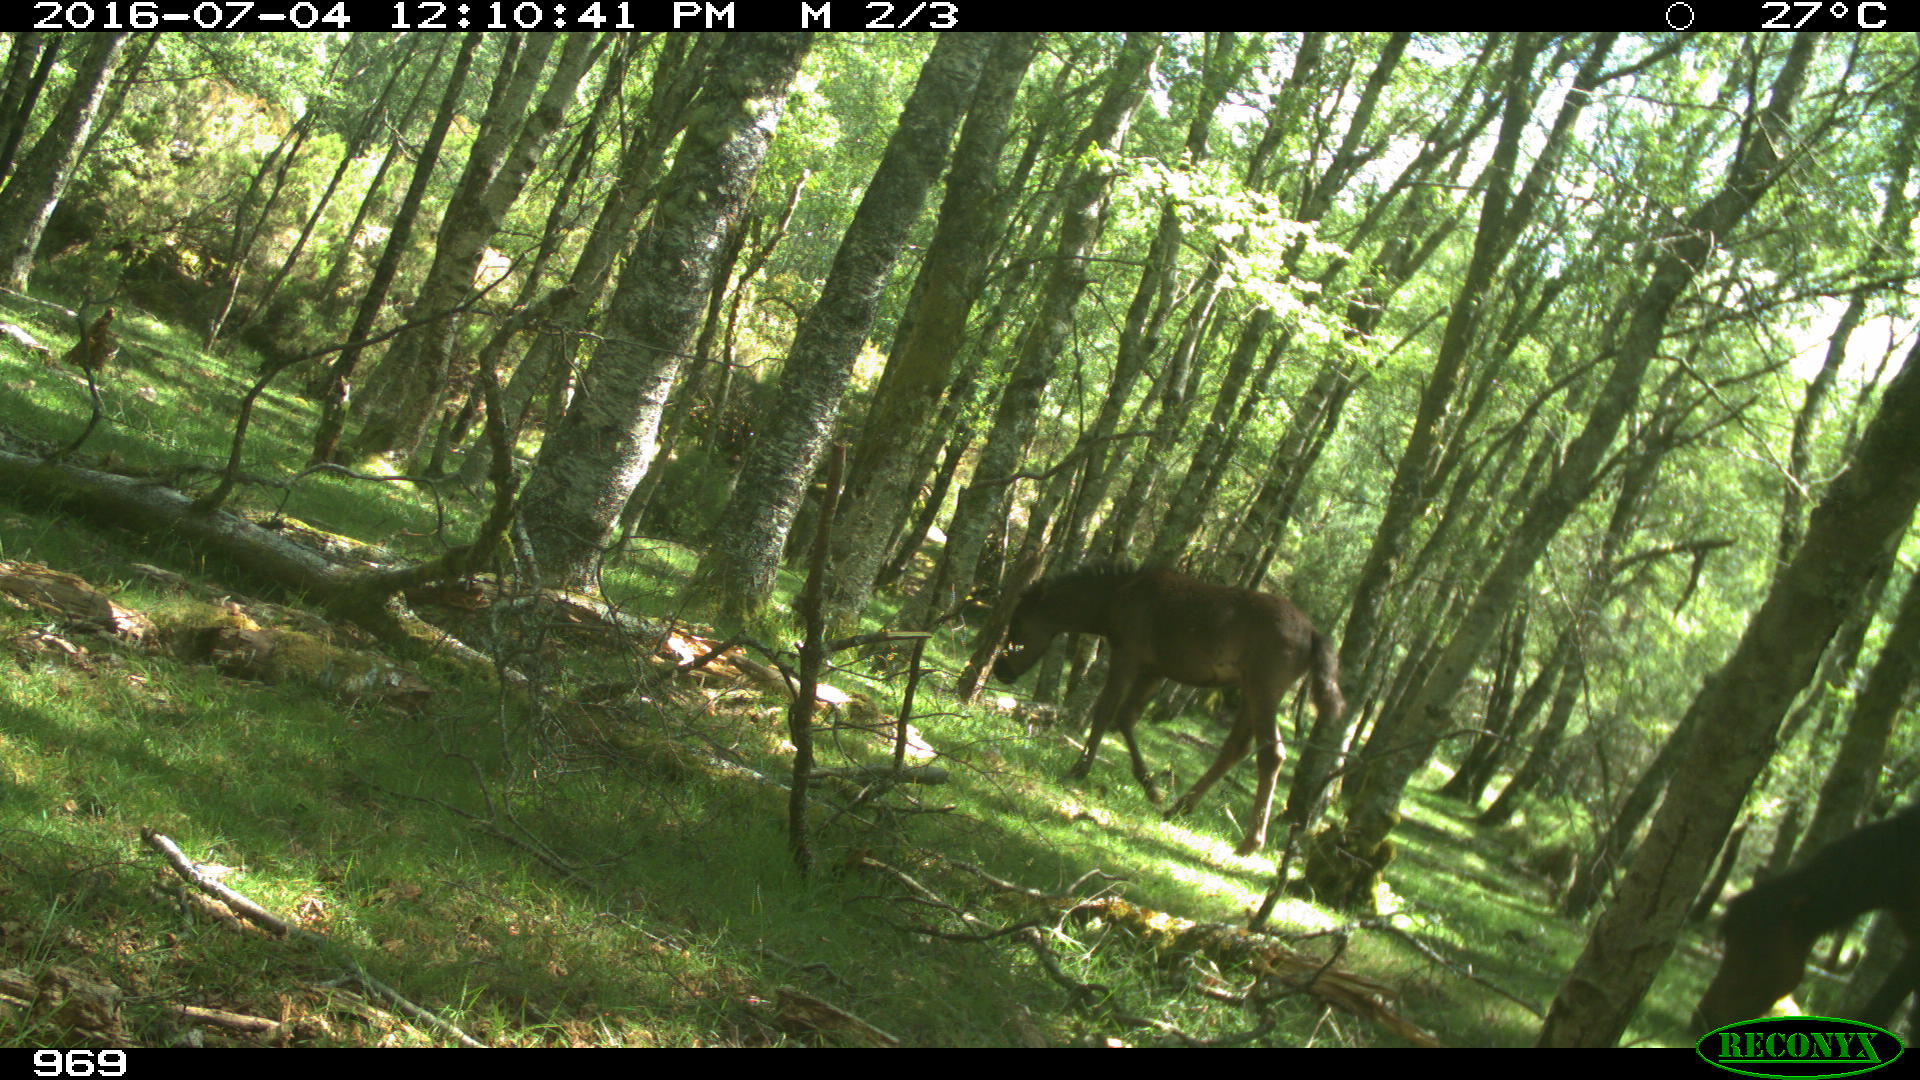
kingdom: Animalia
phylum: Chordata
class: Mammalia
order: Perissodactyla
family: Equidae
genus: Equus
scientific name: Equus caballus
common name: Horse
